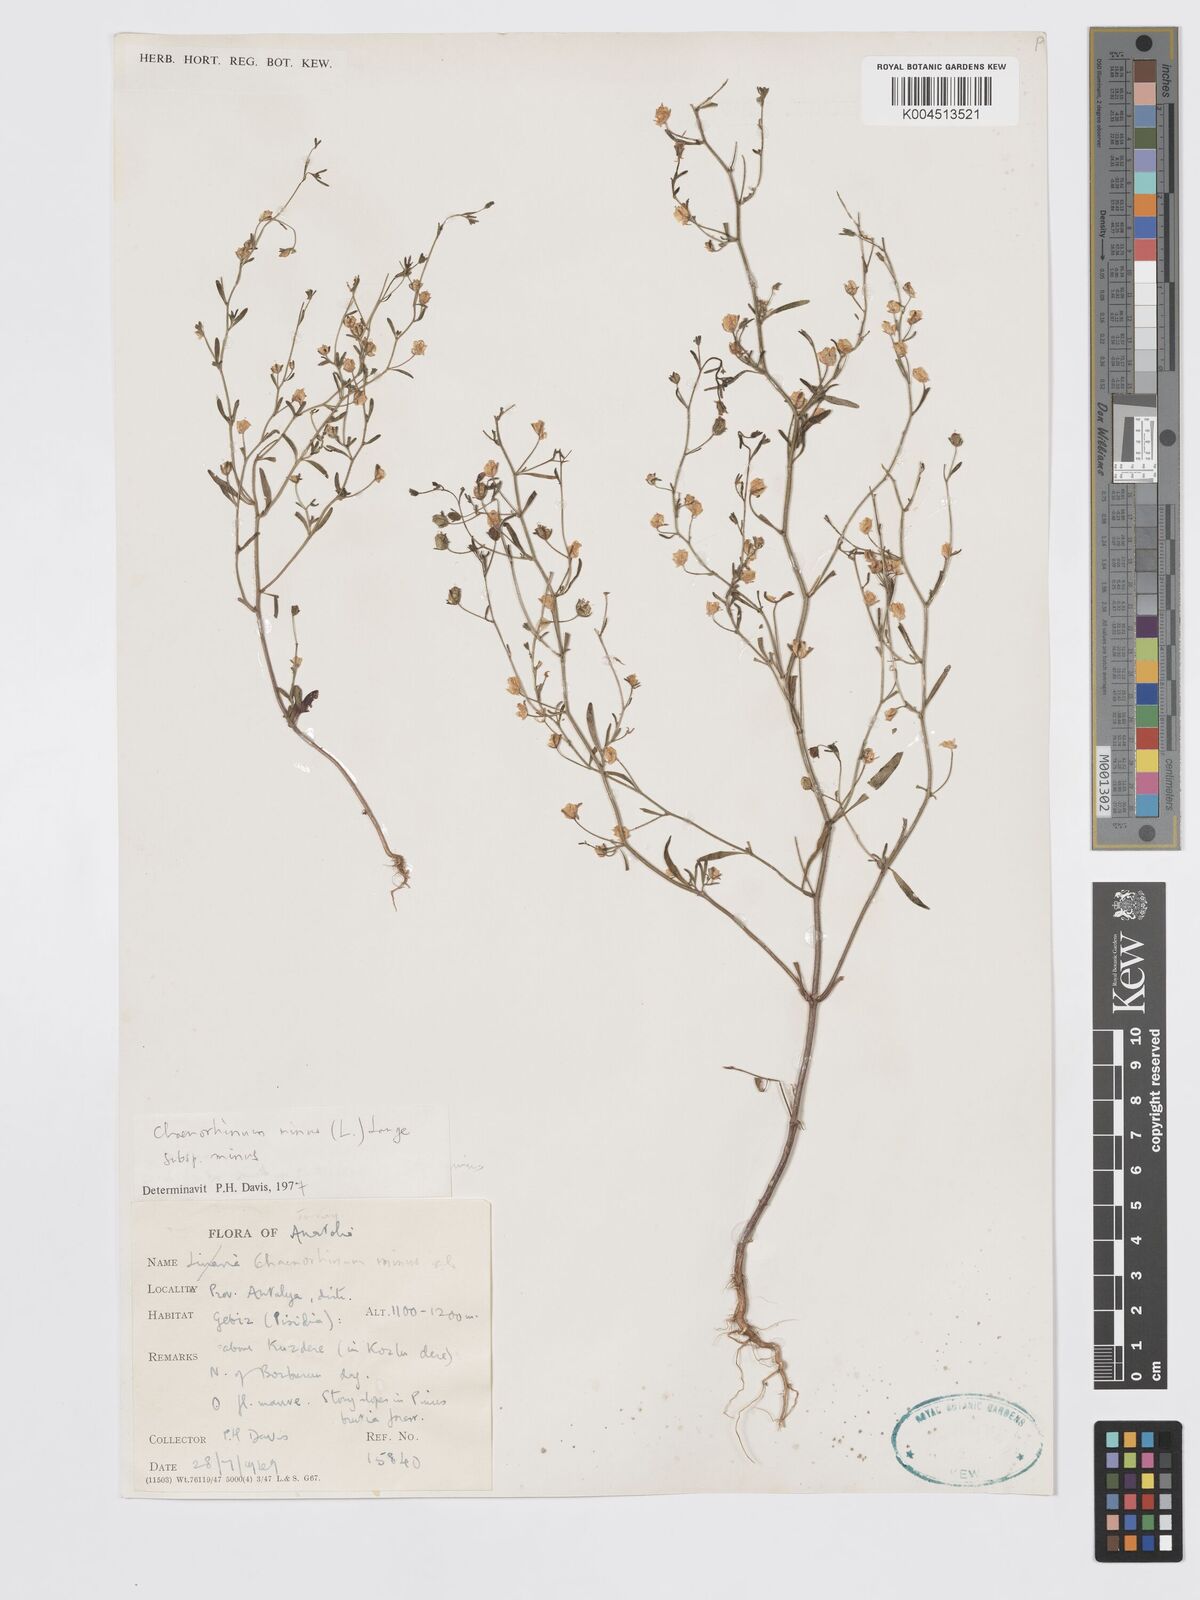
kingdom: Plantae
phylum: Tracheophyta
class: Magnoliopsida
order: Lamiales
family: Plantaginaceae
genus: Chaenorhinum
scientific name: Chaenorhinum minus
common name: Dwarf snapdragon
